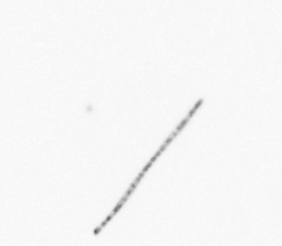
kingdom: Chromista
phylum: Ochrophyta
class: Bacillariophyceae
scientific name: Bacillariophyceae
